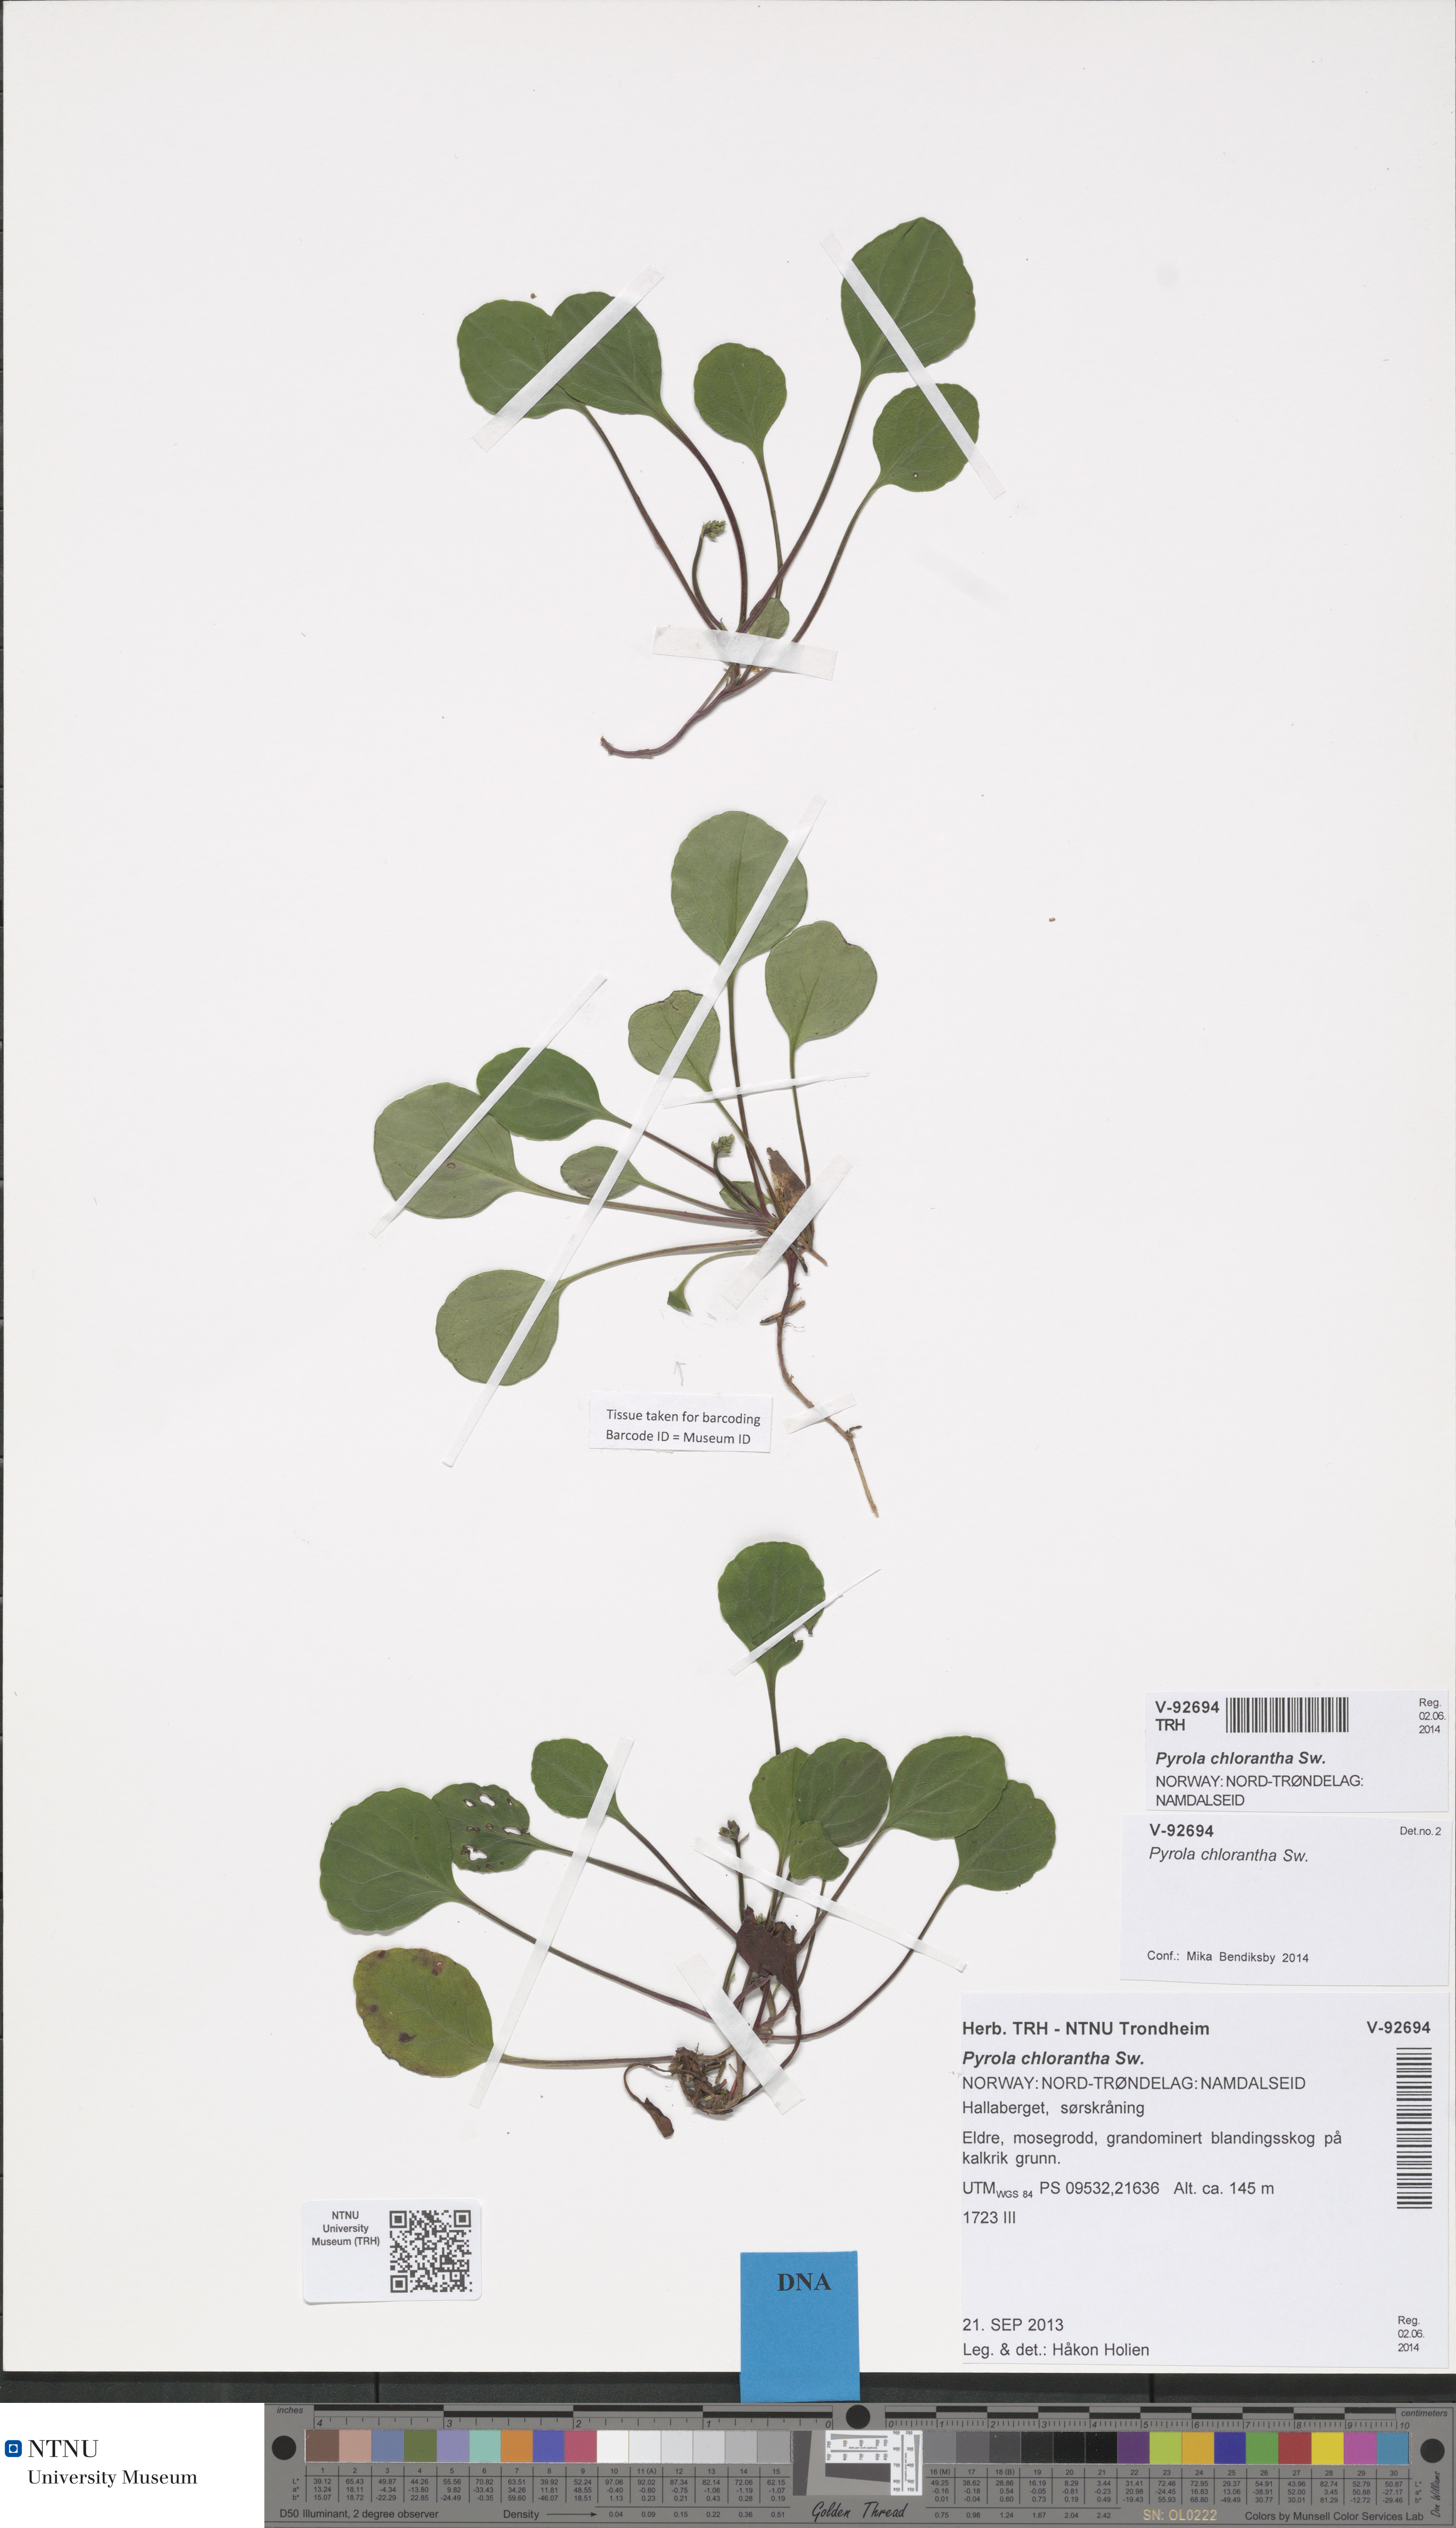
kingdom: Plantae
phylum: Tracheophyta
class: Magnoliopsida
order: Ericales
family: Ericaceae
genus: Pyrola
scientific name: Pyrola chlorantha
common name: Green wintergreen
